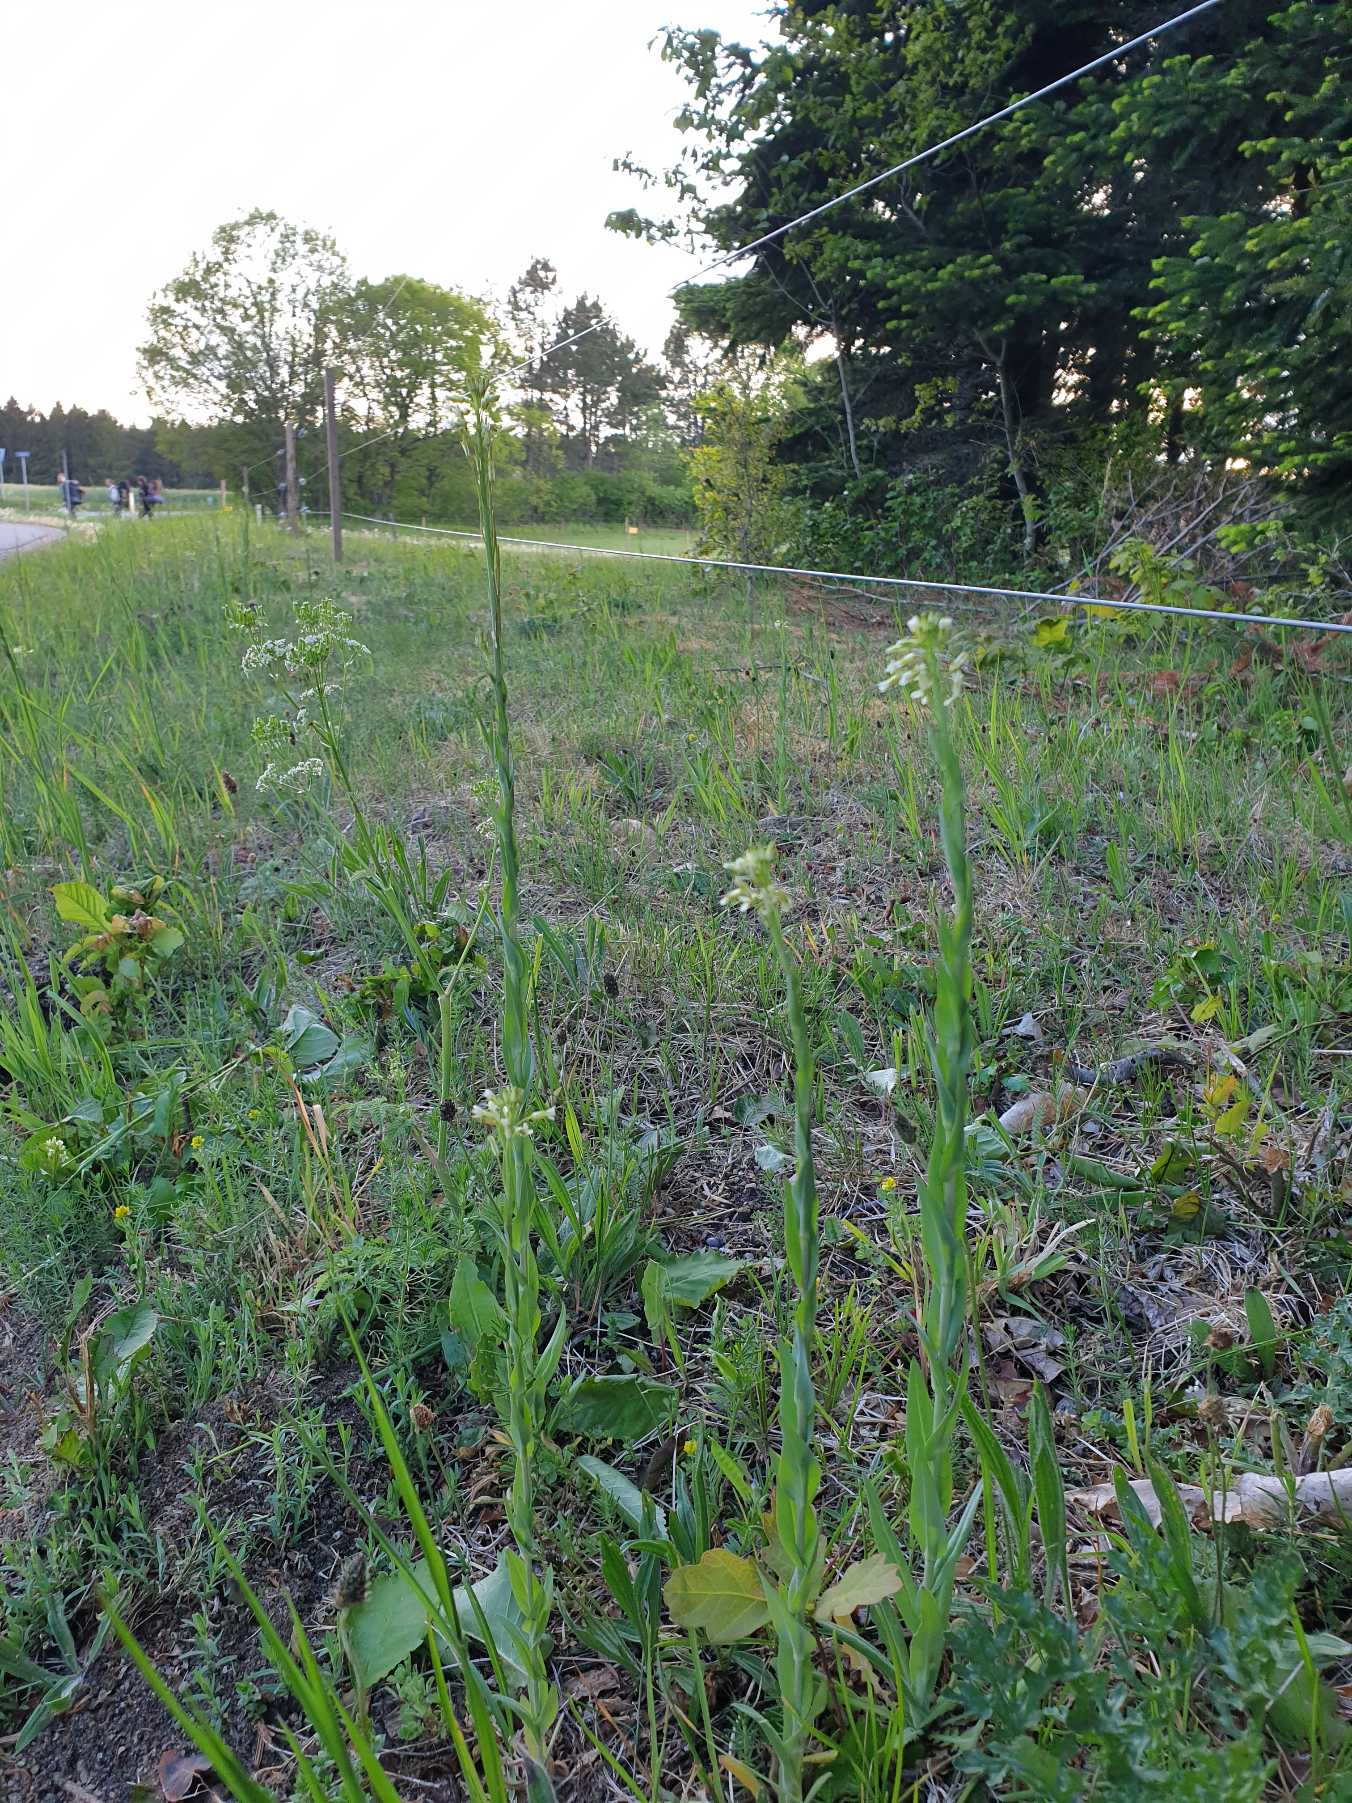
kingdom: Plantae
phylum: Tracheophyta
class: Magnoliopsida
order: Brassicales
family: Brassicaceae
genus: Turritis
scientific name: Turritis glabra
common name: Tårnurt
